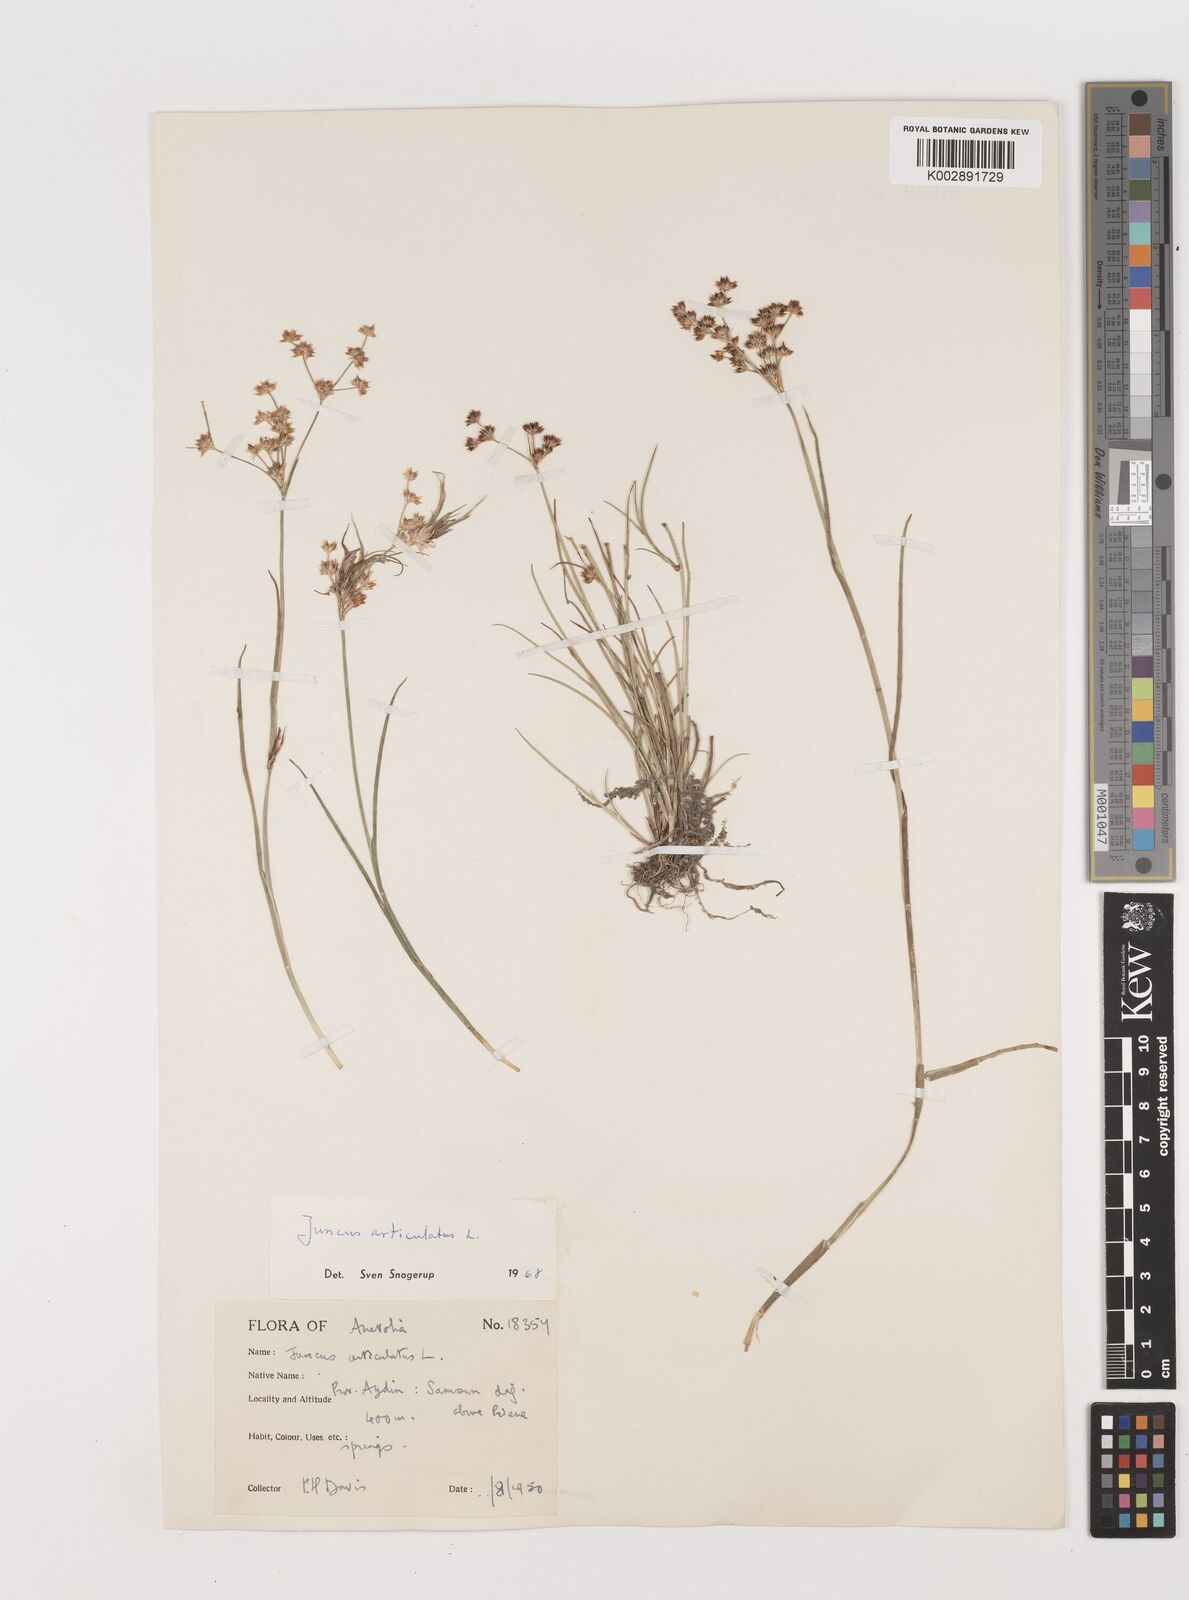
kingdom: Plantae
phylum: Tracheophyta
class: Liliopsida
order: Poales
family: Juncaceae
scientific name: Juncaceae
